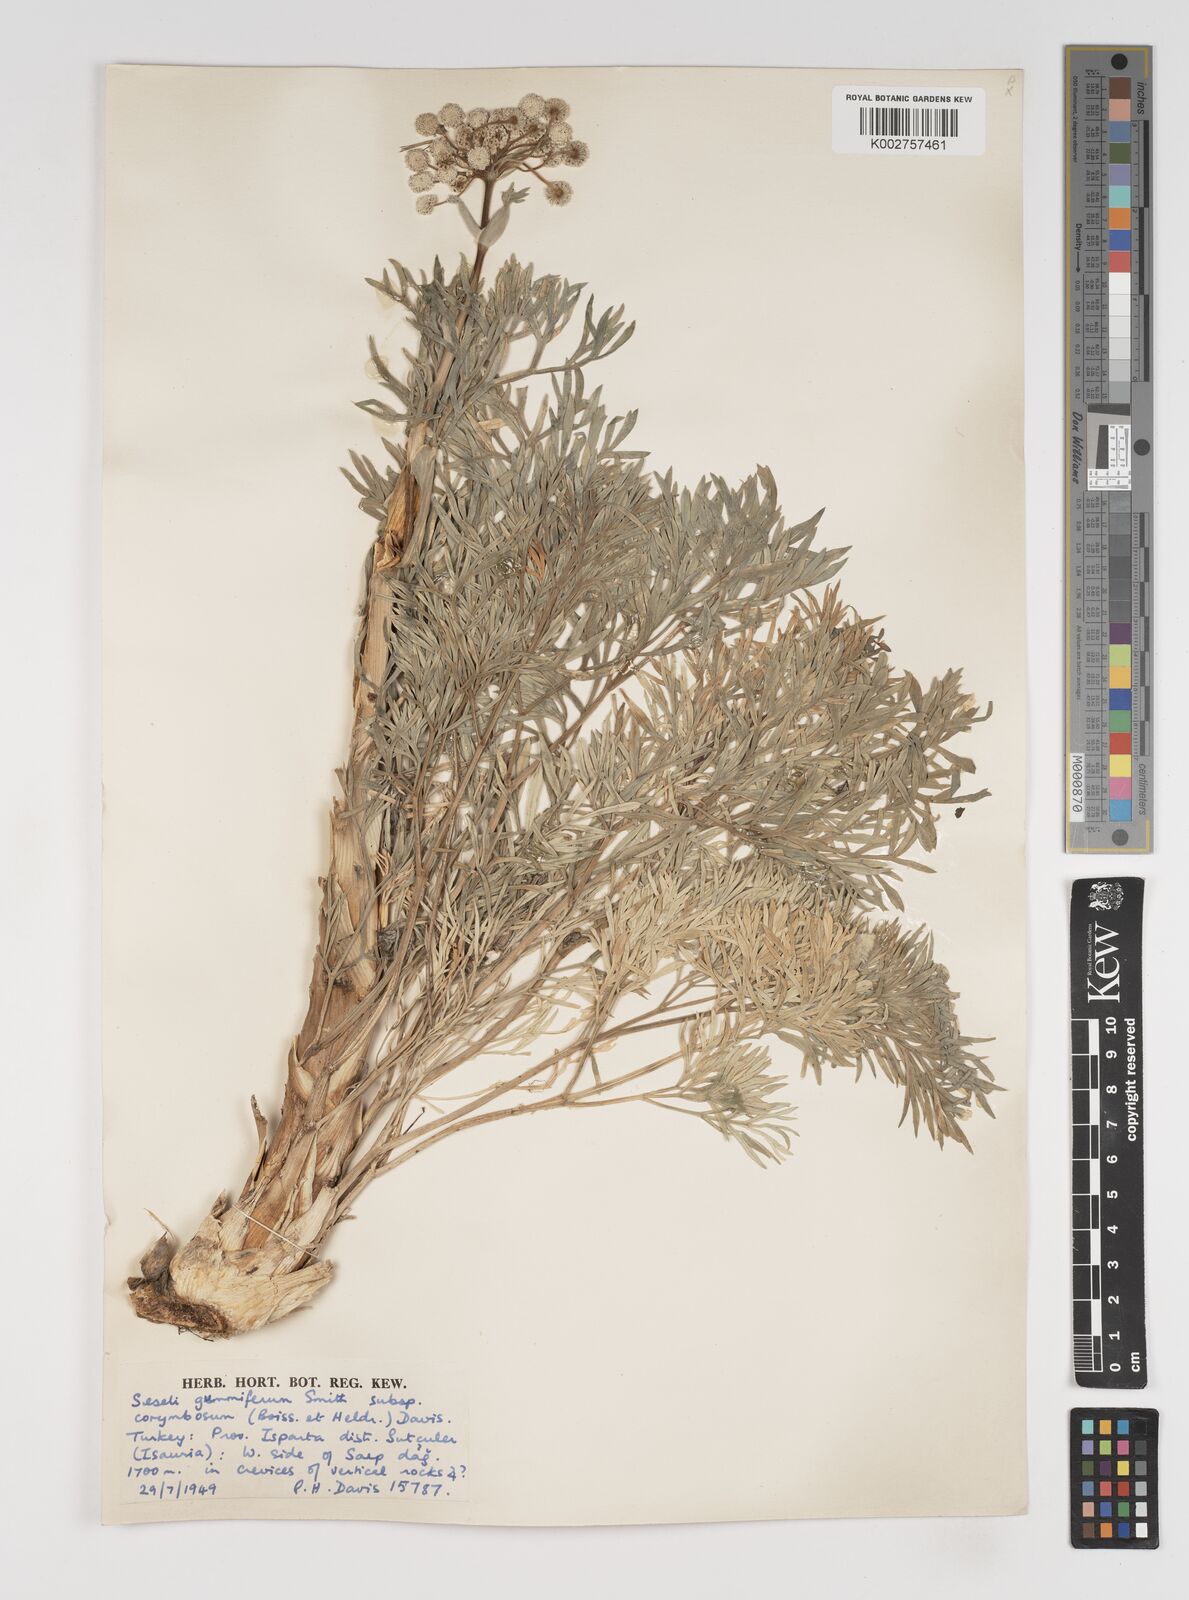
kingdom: Plantae
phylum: Tracheophyta
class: Magnoliopsida
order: Apiales
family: Apiaceae
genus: Seseli
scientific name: Seseli gummiferum
